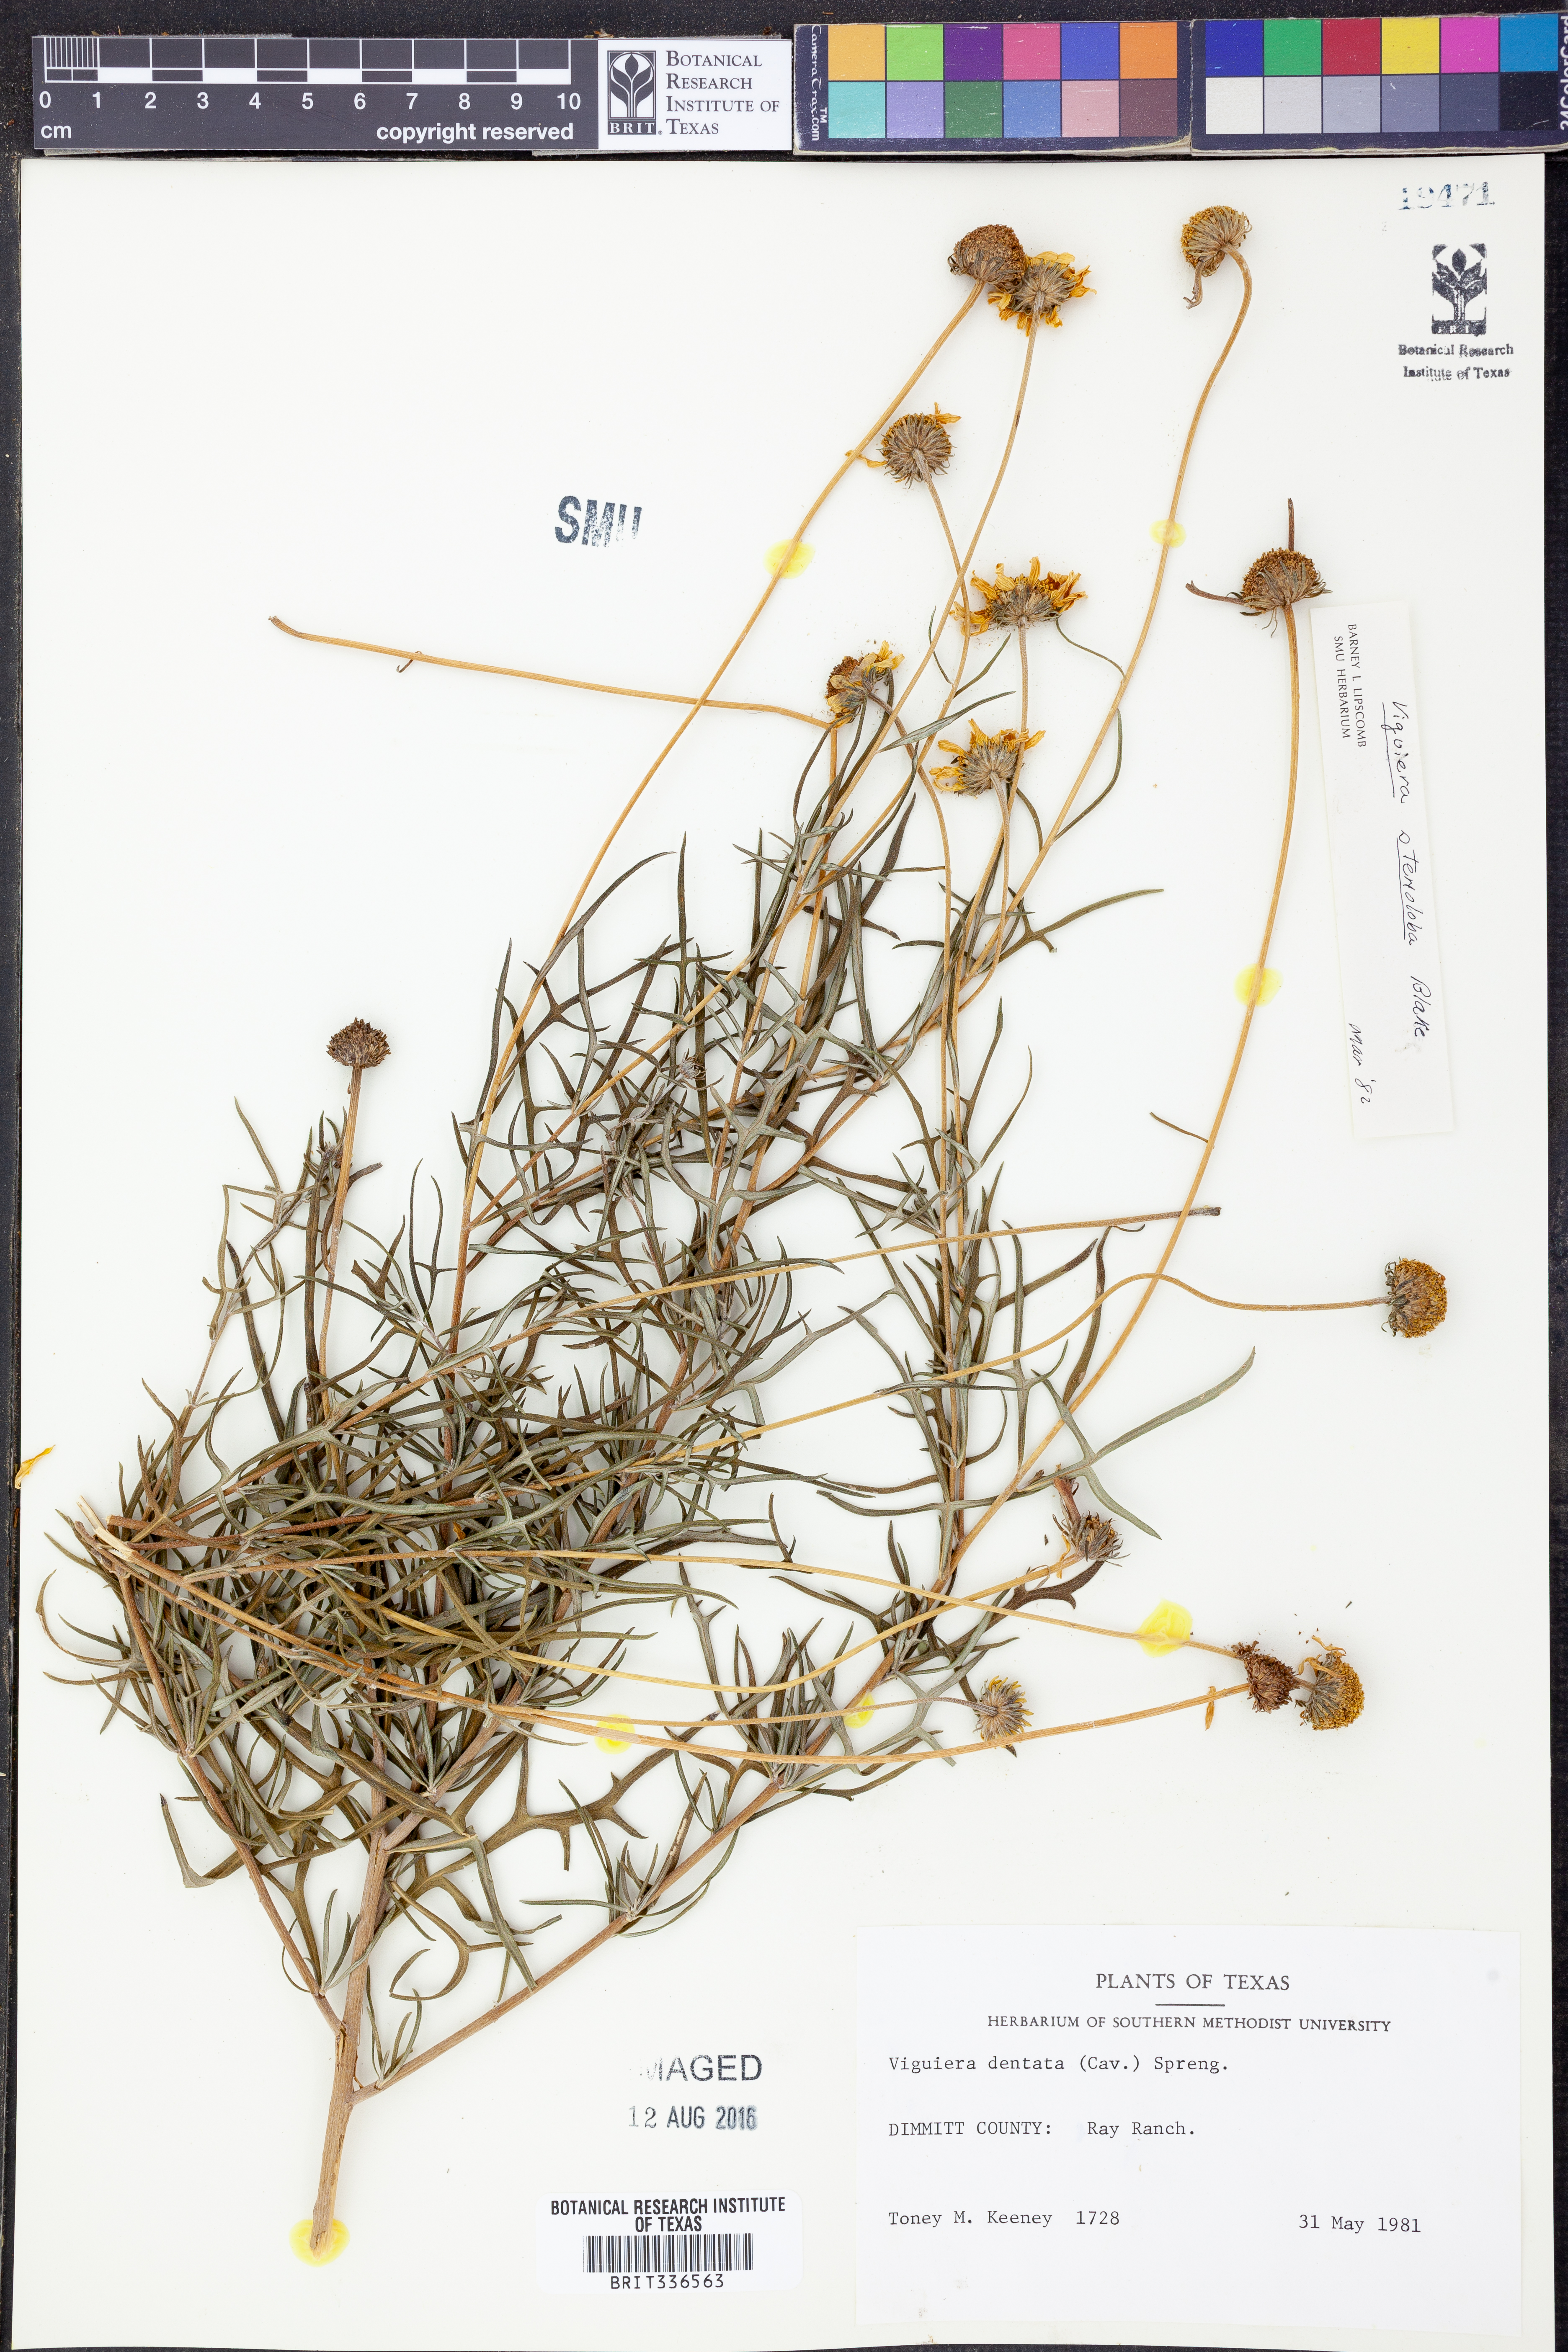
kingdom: Plantae
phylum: Tracheophyta
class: Magnoliopsida
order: Asterales
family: Asteraceae
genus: Sidneya
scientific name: Sidneya tenuifolia
